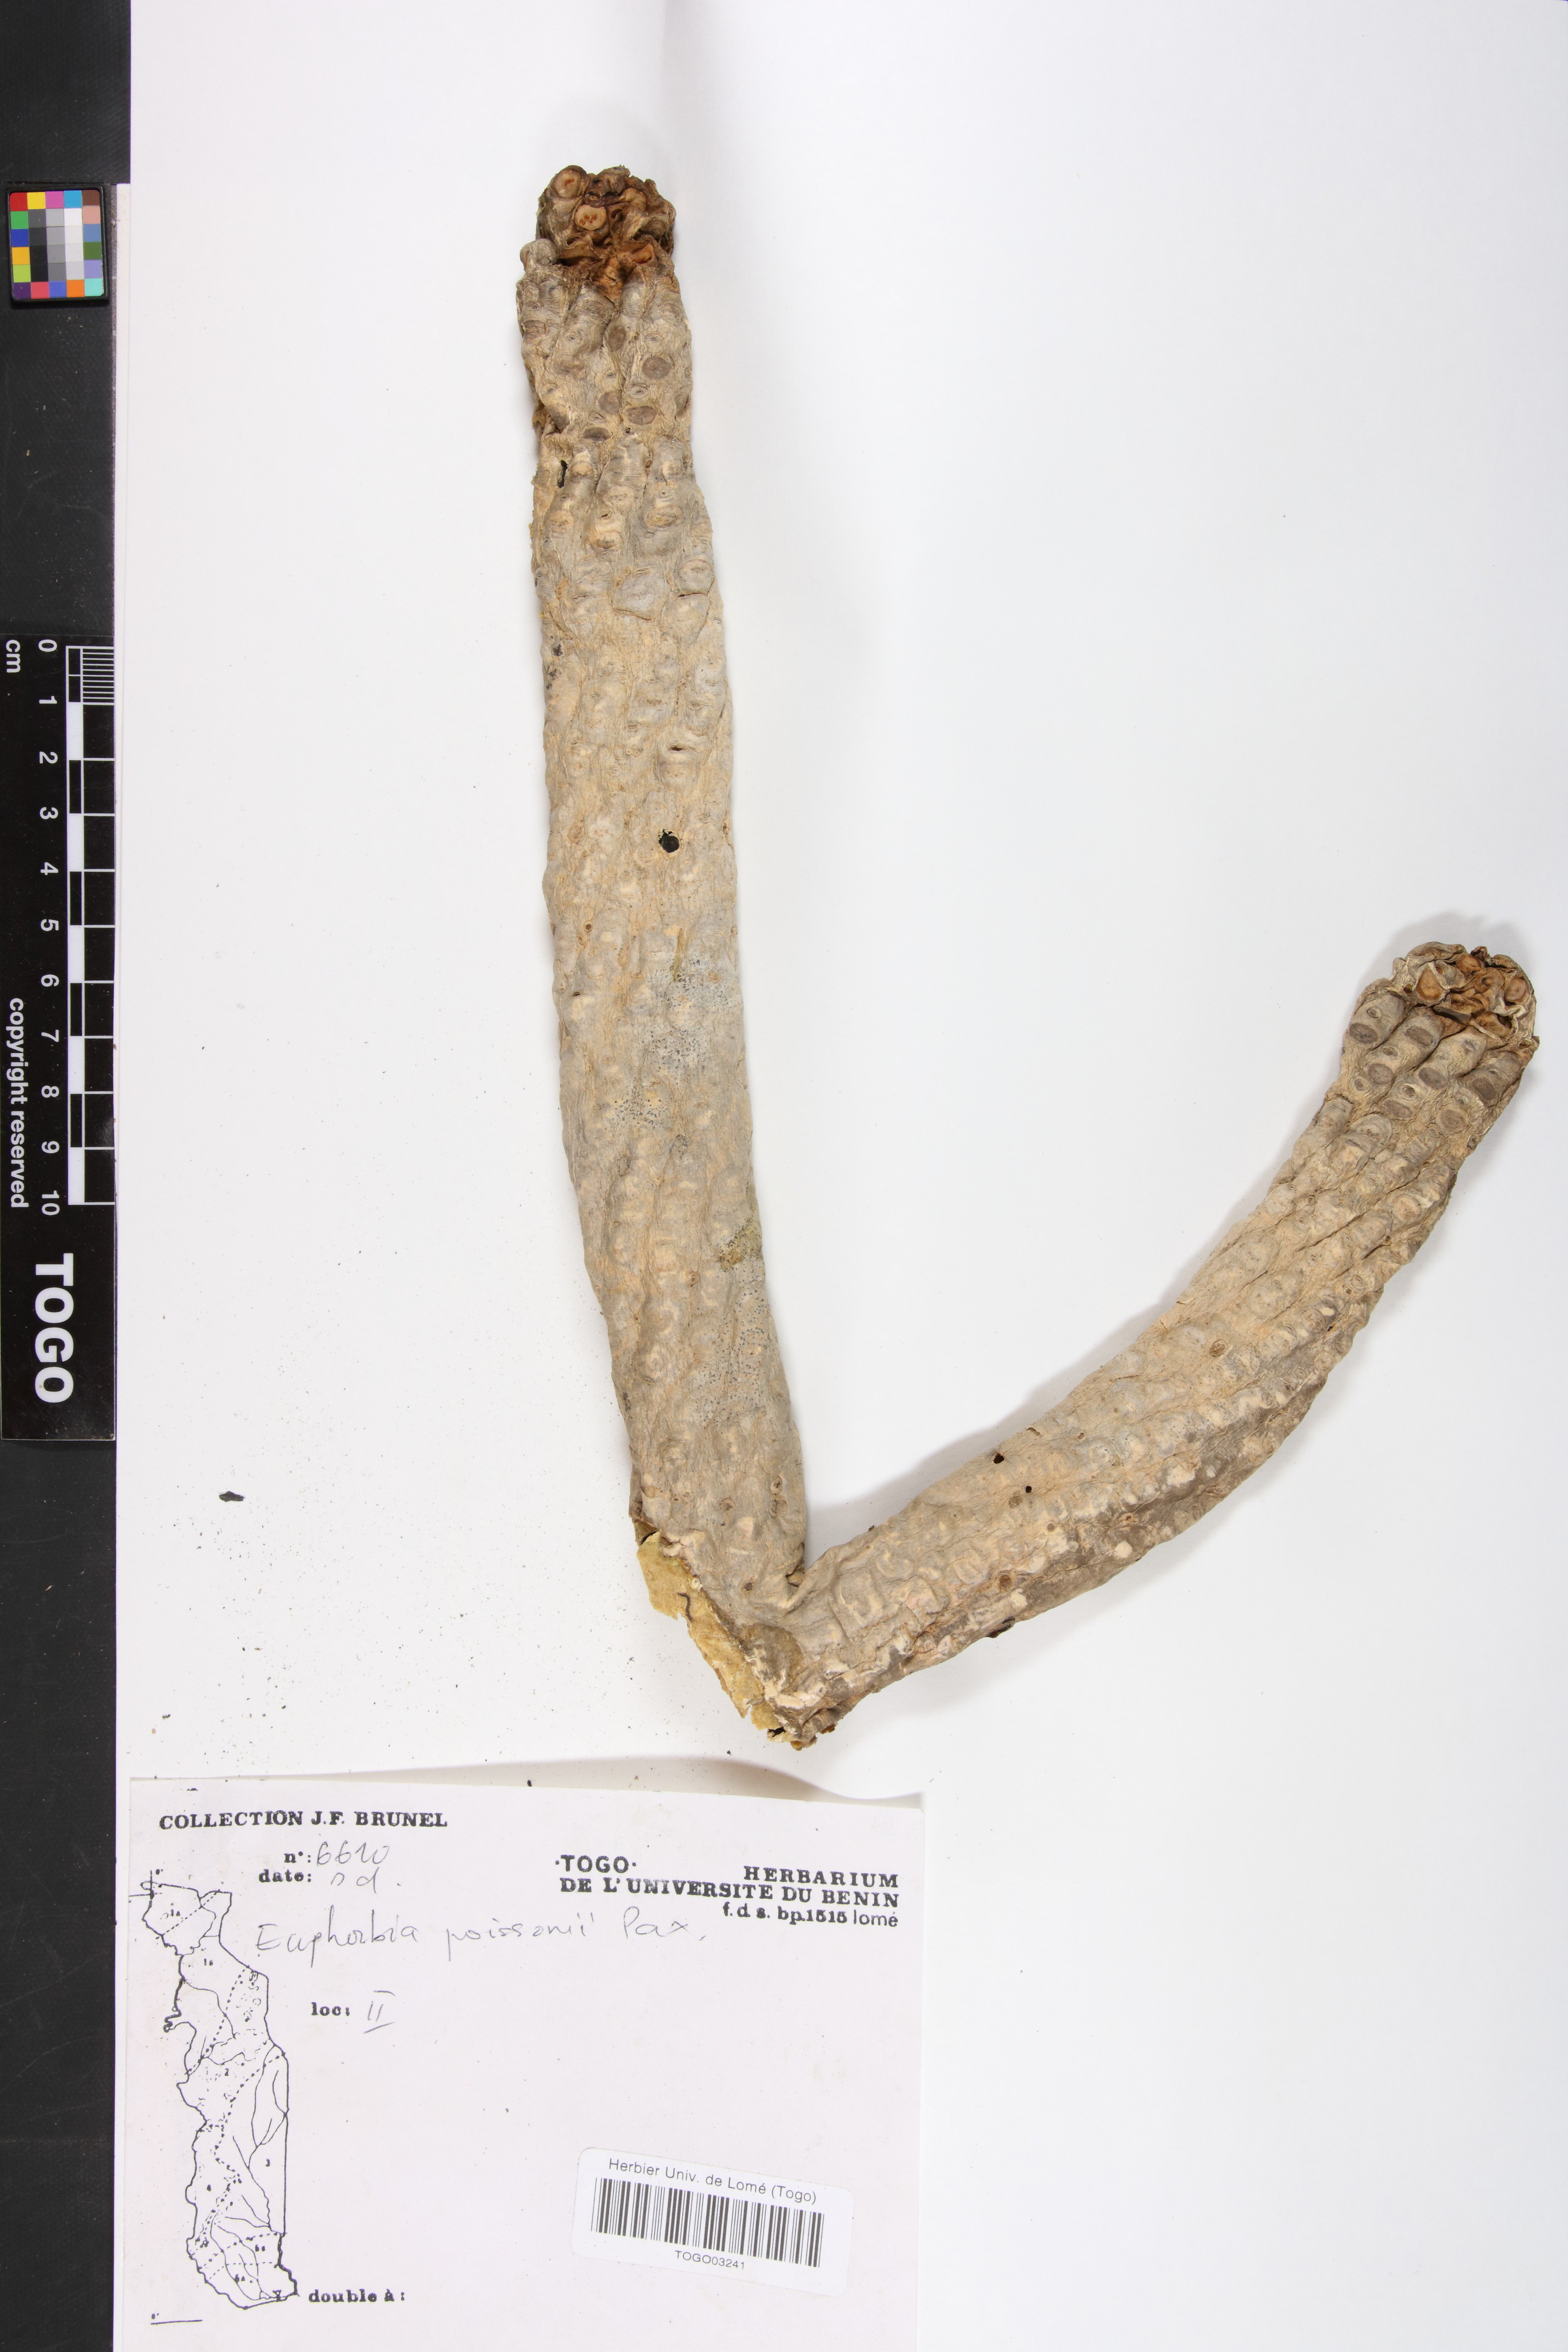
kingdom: Plantae
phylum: Tracheophyta
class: Magnoliopsida
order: Malpighiales
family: Euphorbiaceae
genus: Euphorbia
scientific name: Euphorbia poissonii
